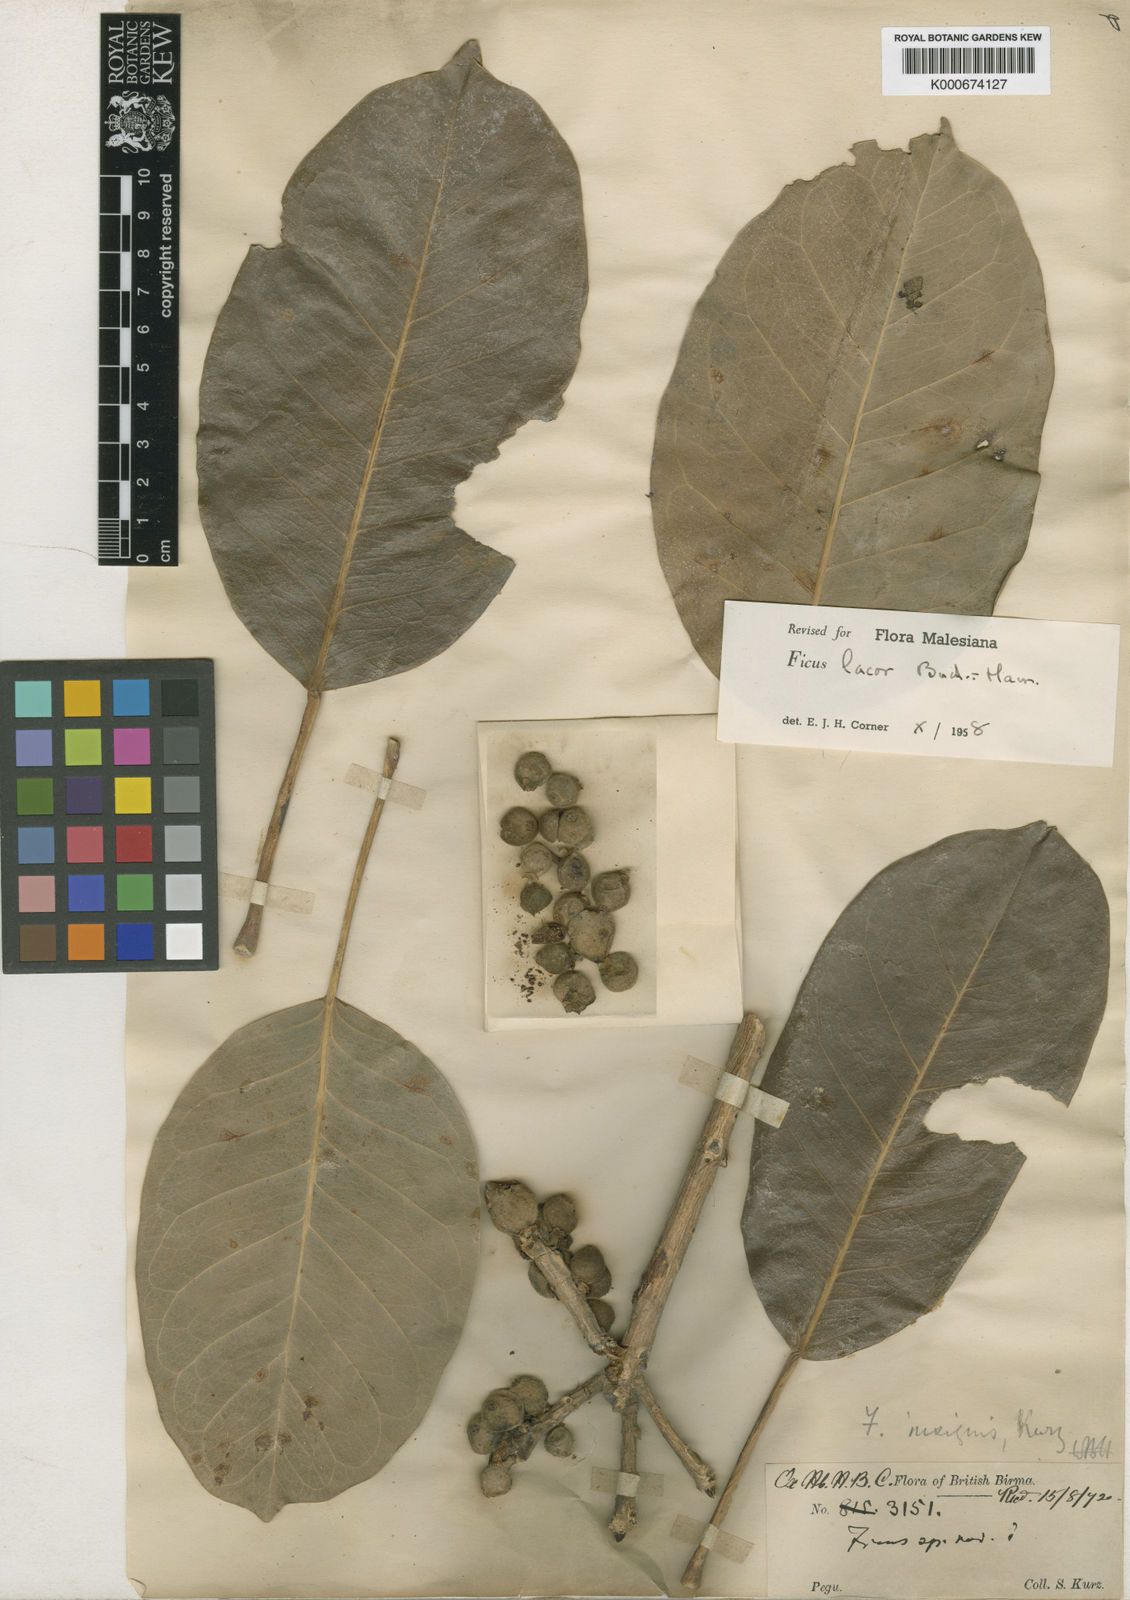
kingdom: Plantae
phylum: Tracheophyta
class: Magnoliopsida
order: Rosales
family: Moraceae
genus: Ficus
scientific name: Ficus lacor
